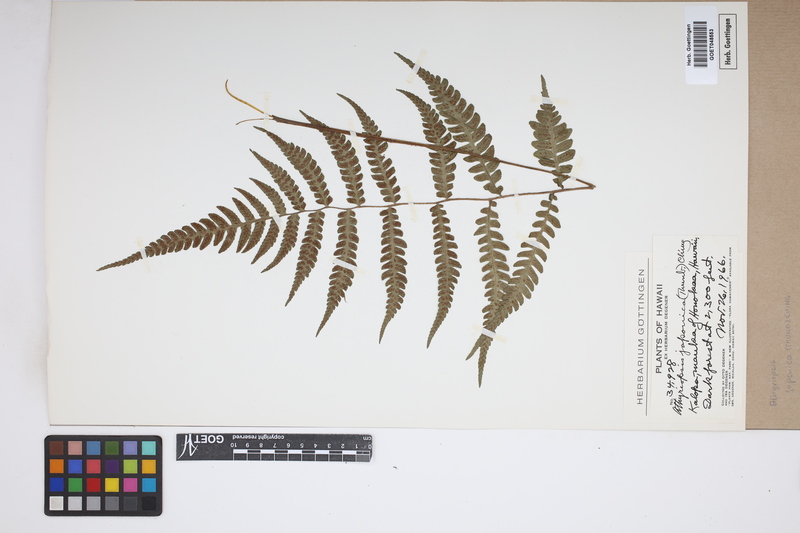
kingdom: Plantae
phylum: Tracheophyta
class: Polypodiopsida
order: Polypodiales
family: Athyriaceae
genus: Deparia
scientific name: Deparia japonica
